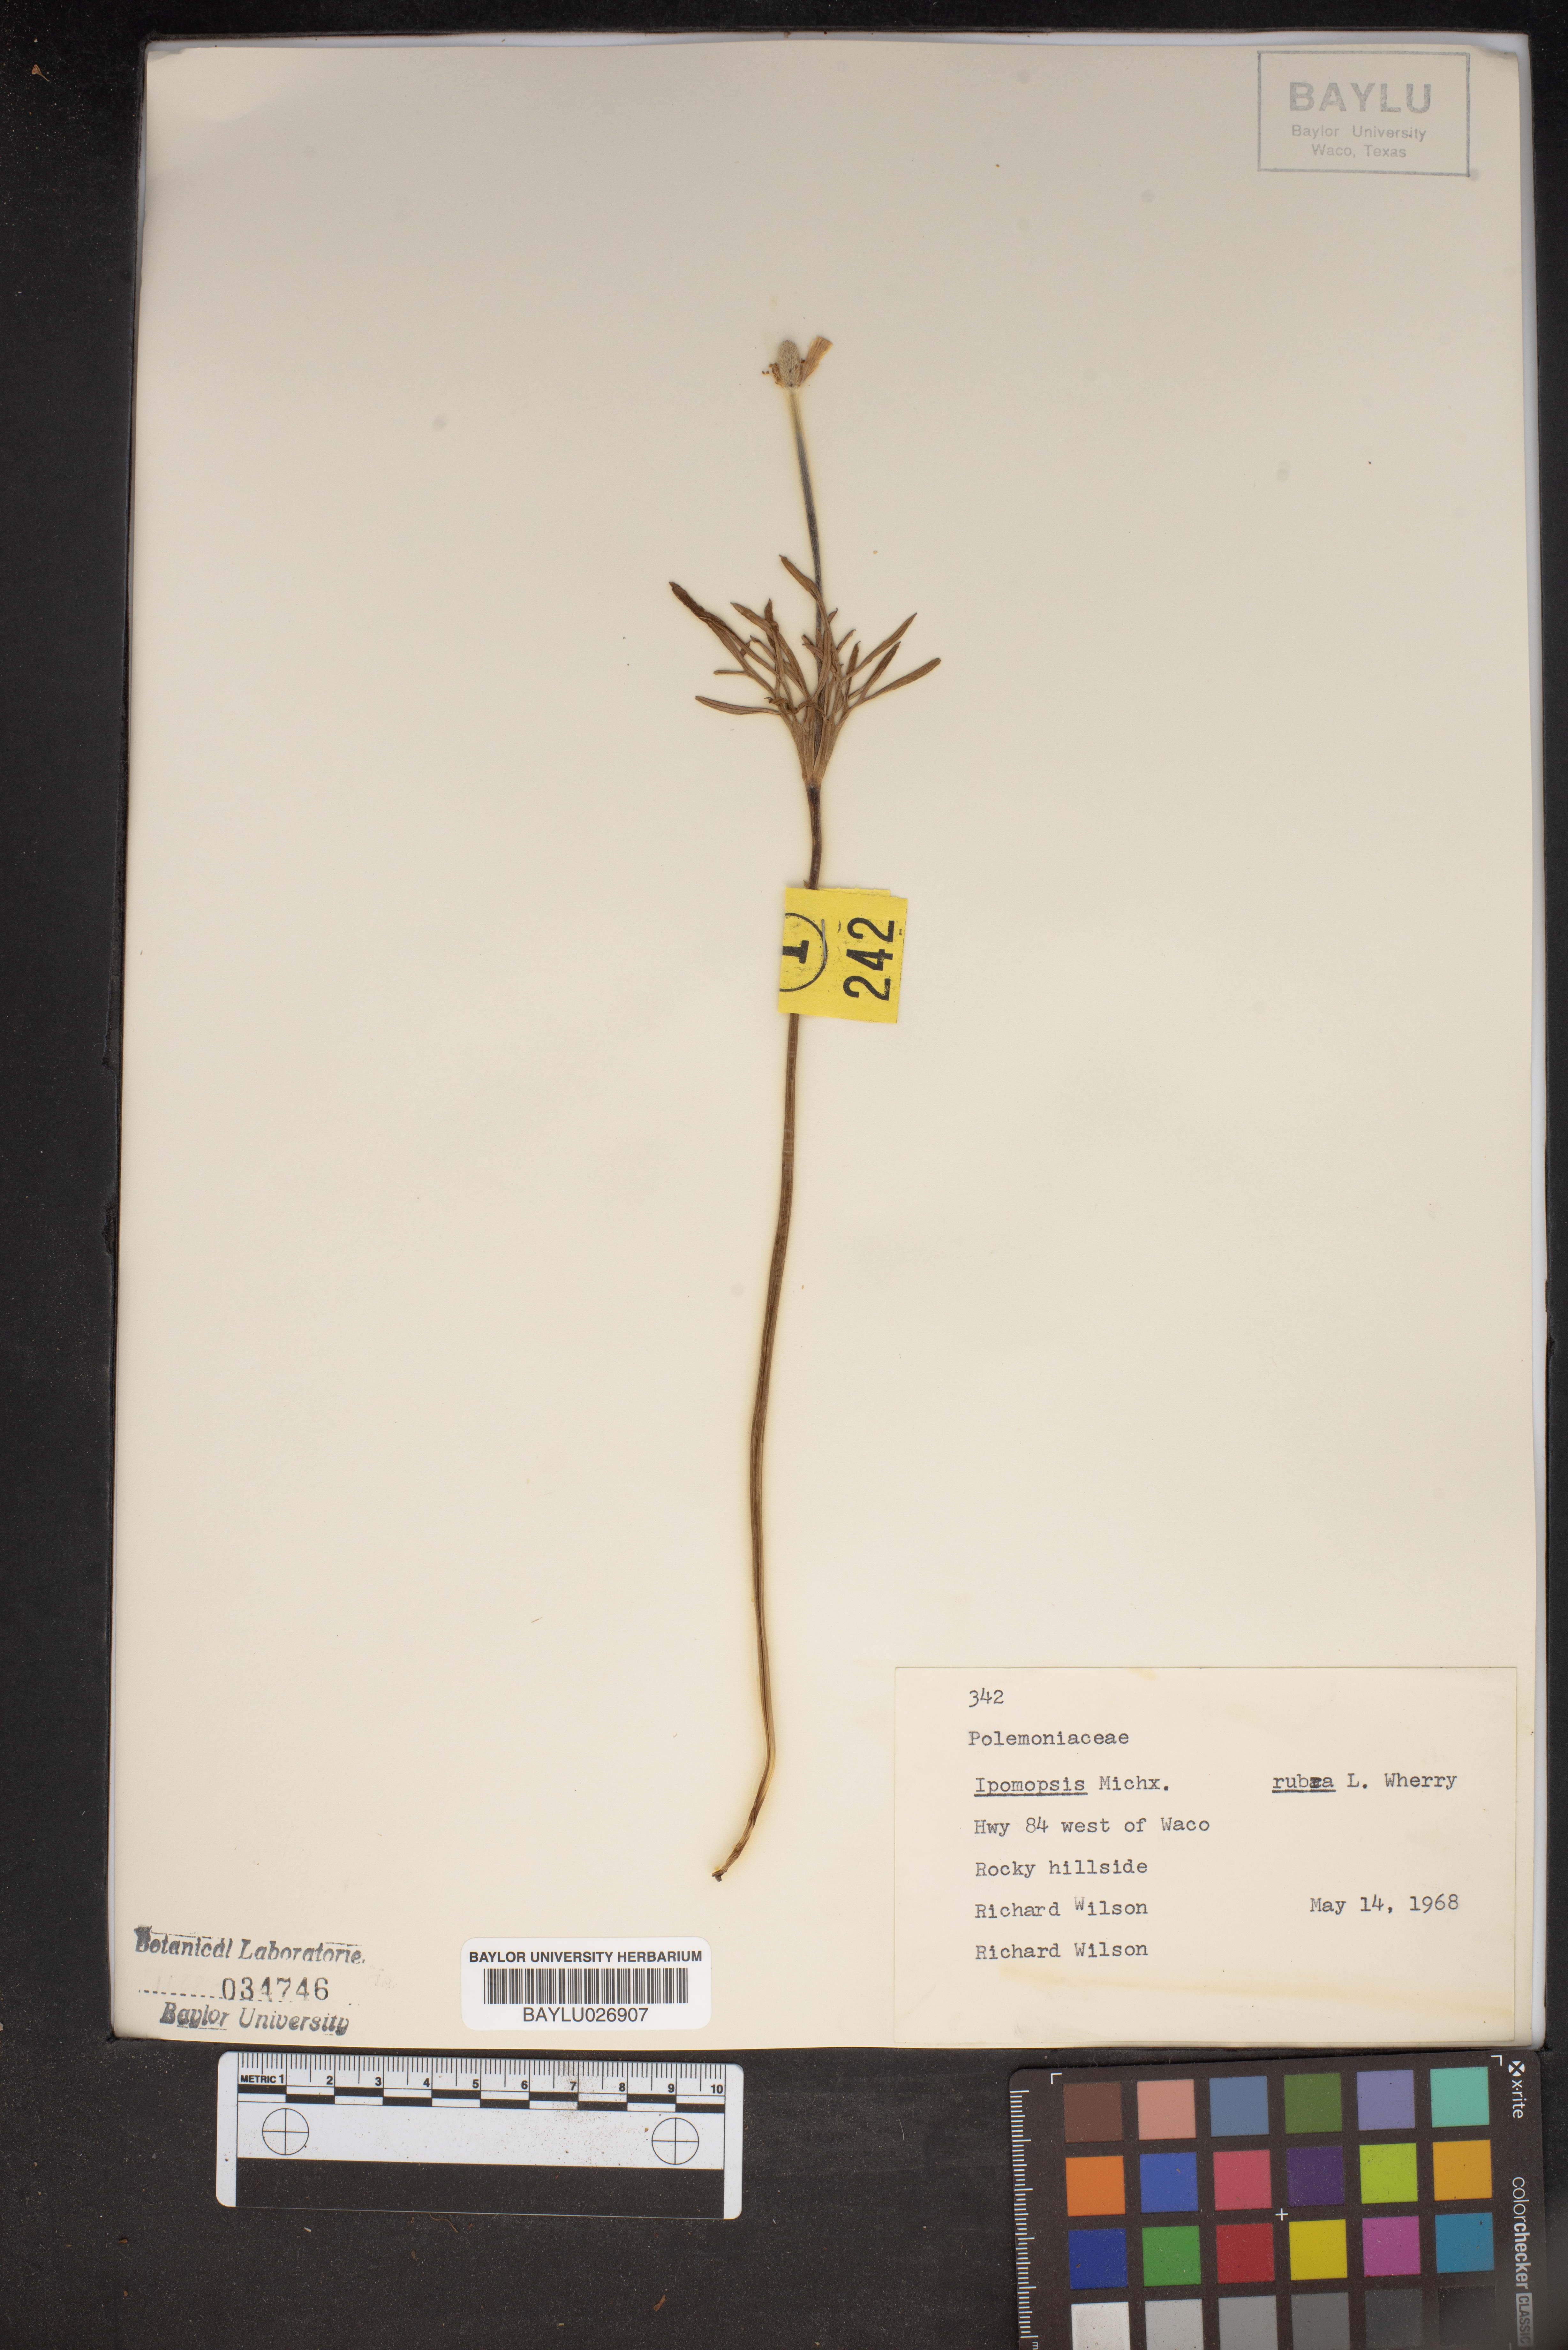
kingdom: Plantae
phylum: Tracheophyta
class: Magnoliopsida
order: Ericales
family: Polemoniaceae
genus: Ipomopsis
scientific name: Ipomopsis rubra
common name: Skyrocket
